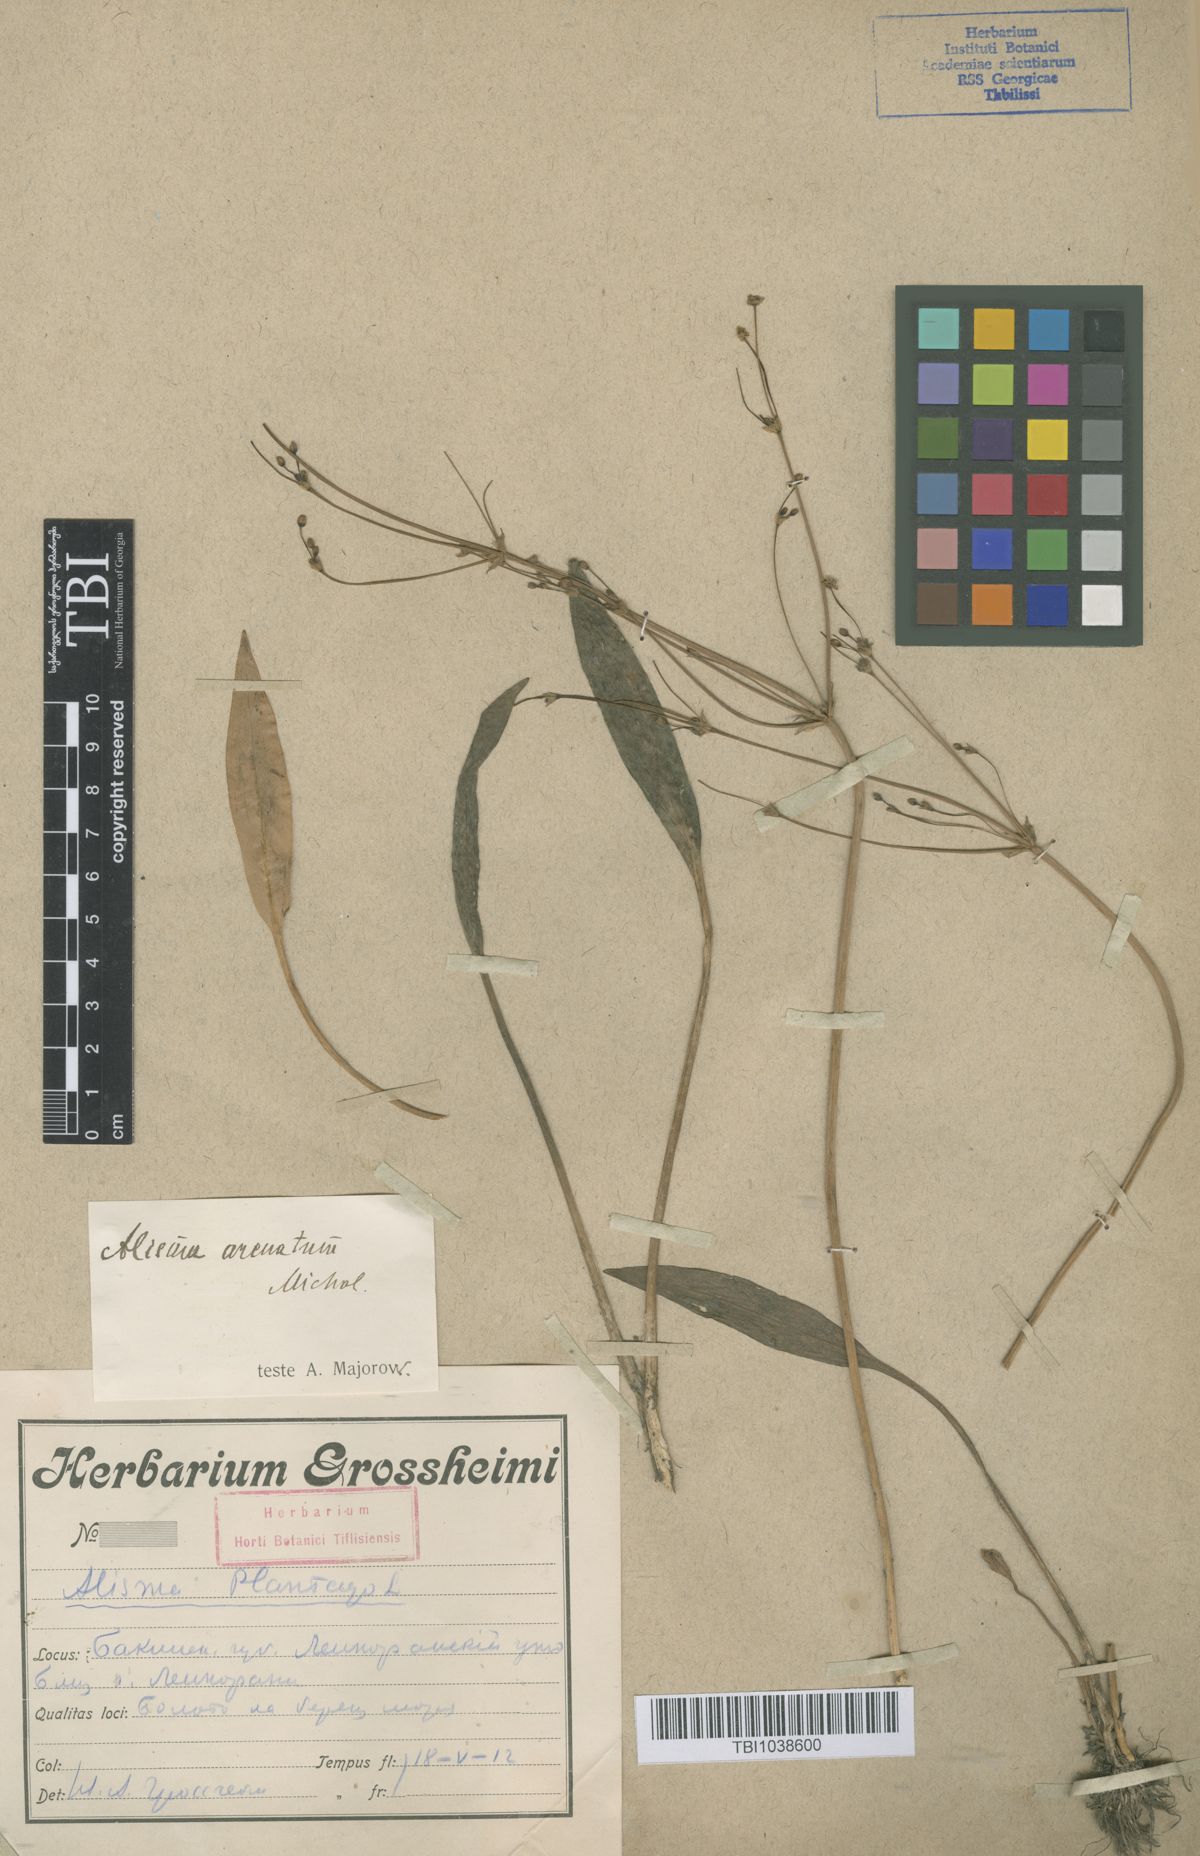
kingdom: Plantae
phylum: Tracheophyta
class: Liliopsida
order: Alismatales
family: Alismataceae
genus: Alisma
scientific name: Alisma gramineum
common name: Ribbon-leaved water-plantain
